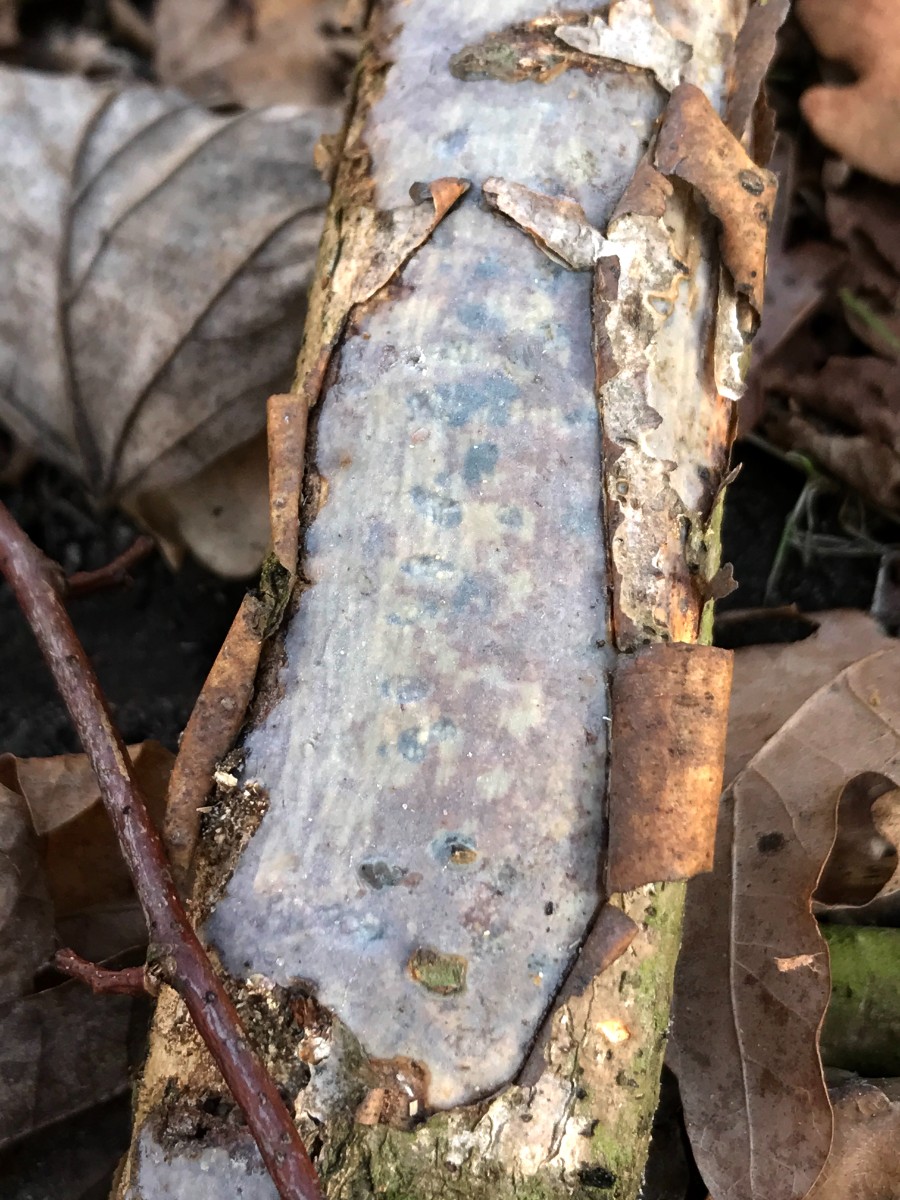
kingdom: Fungi
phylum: Basidiomycota
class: Agaricomycetes
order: Corticiales
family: Vuilleminiaceae
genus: Vuilleminia
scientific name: Vuilleminia comedens
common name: almindelig barksprænger
